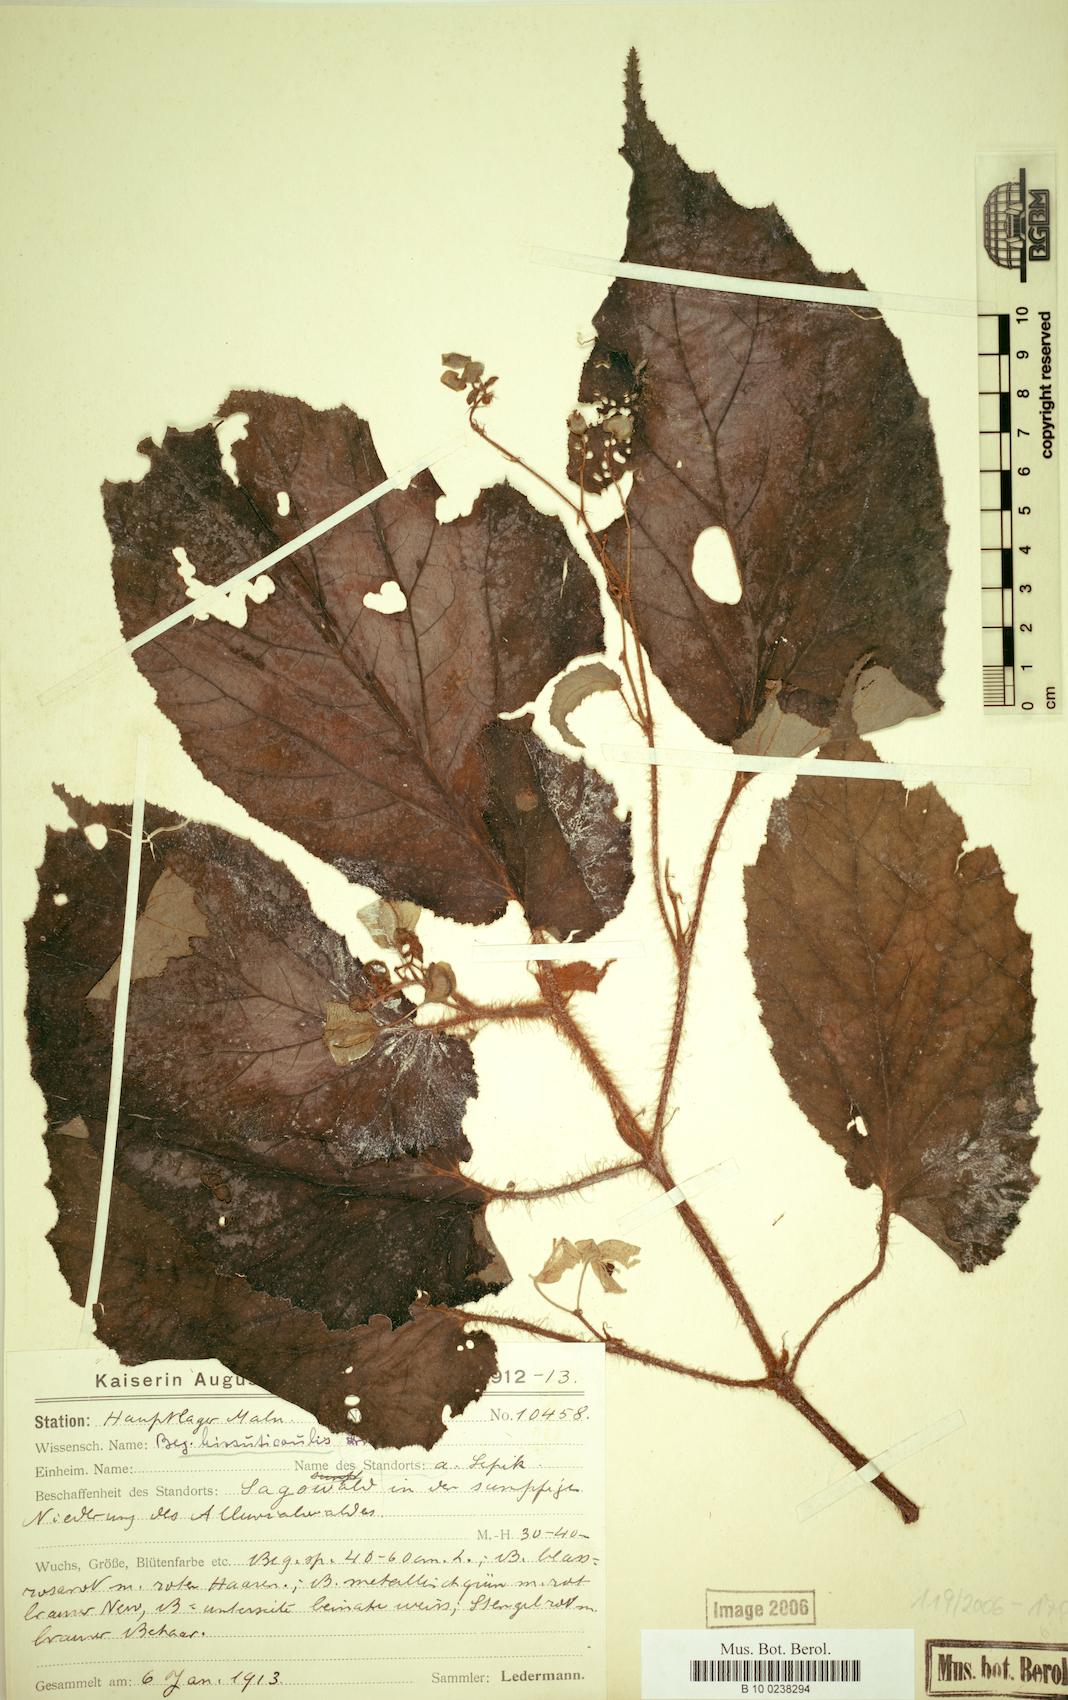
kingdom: Plantae
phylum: Tracheophyta
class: Magnoliopsida
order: Cucurbitales
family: Begoniaceae
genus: Begonia
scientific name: Begonia hirsuticaulis
